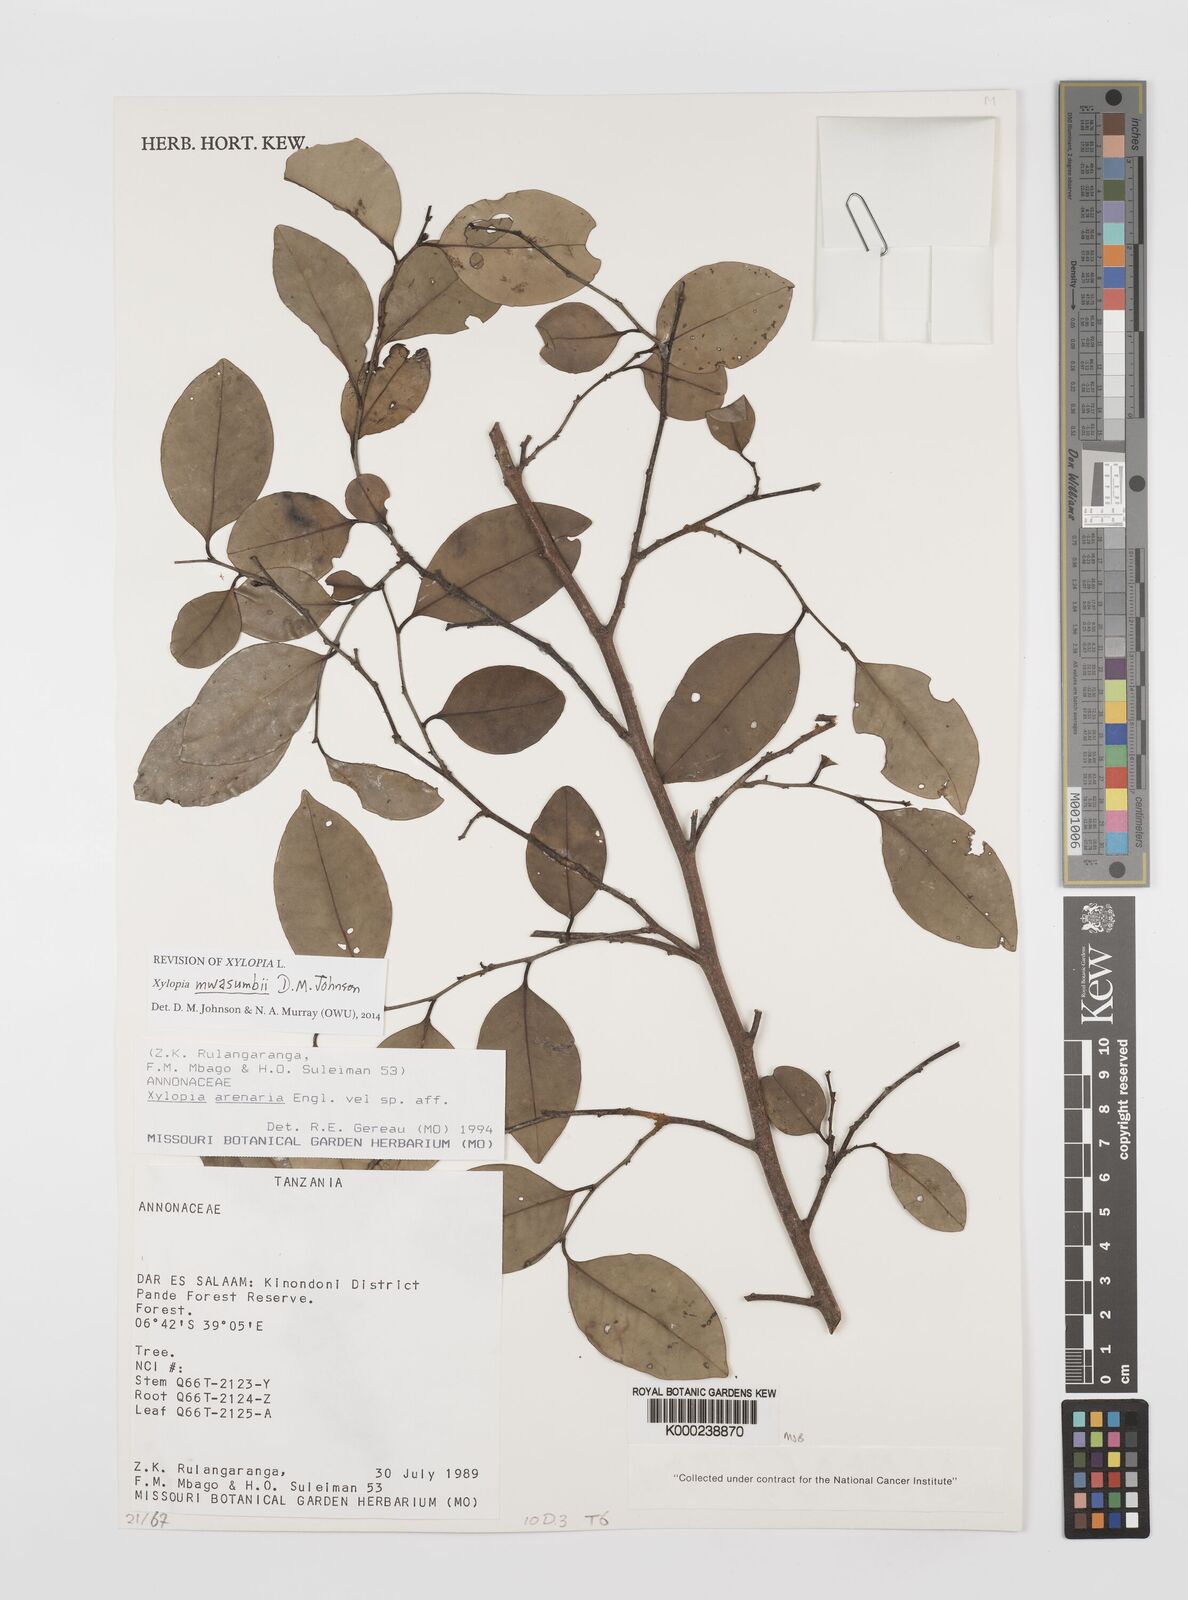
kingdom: Plantae
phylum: Tracheophyta
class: Magnoliopsida
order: Magnoliales
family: Annonaceae
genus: Xylopia
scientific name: Xylopia arenaria
